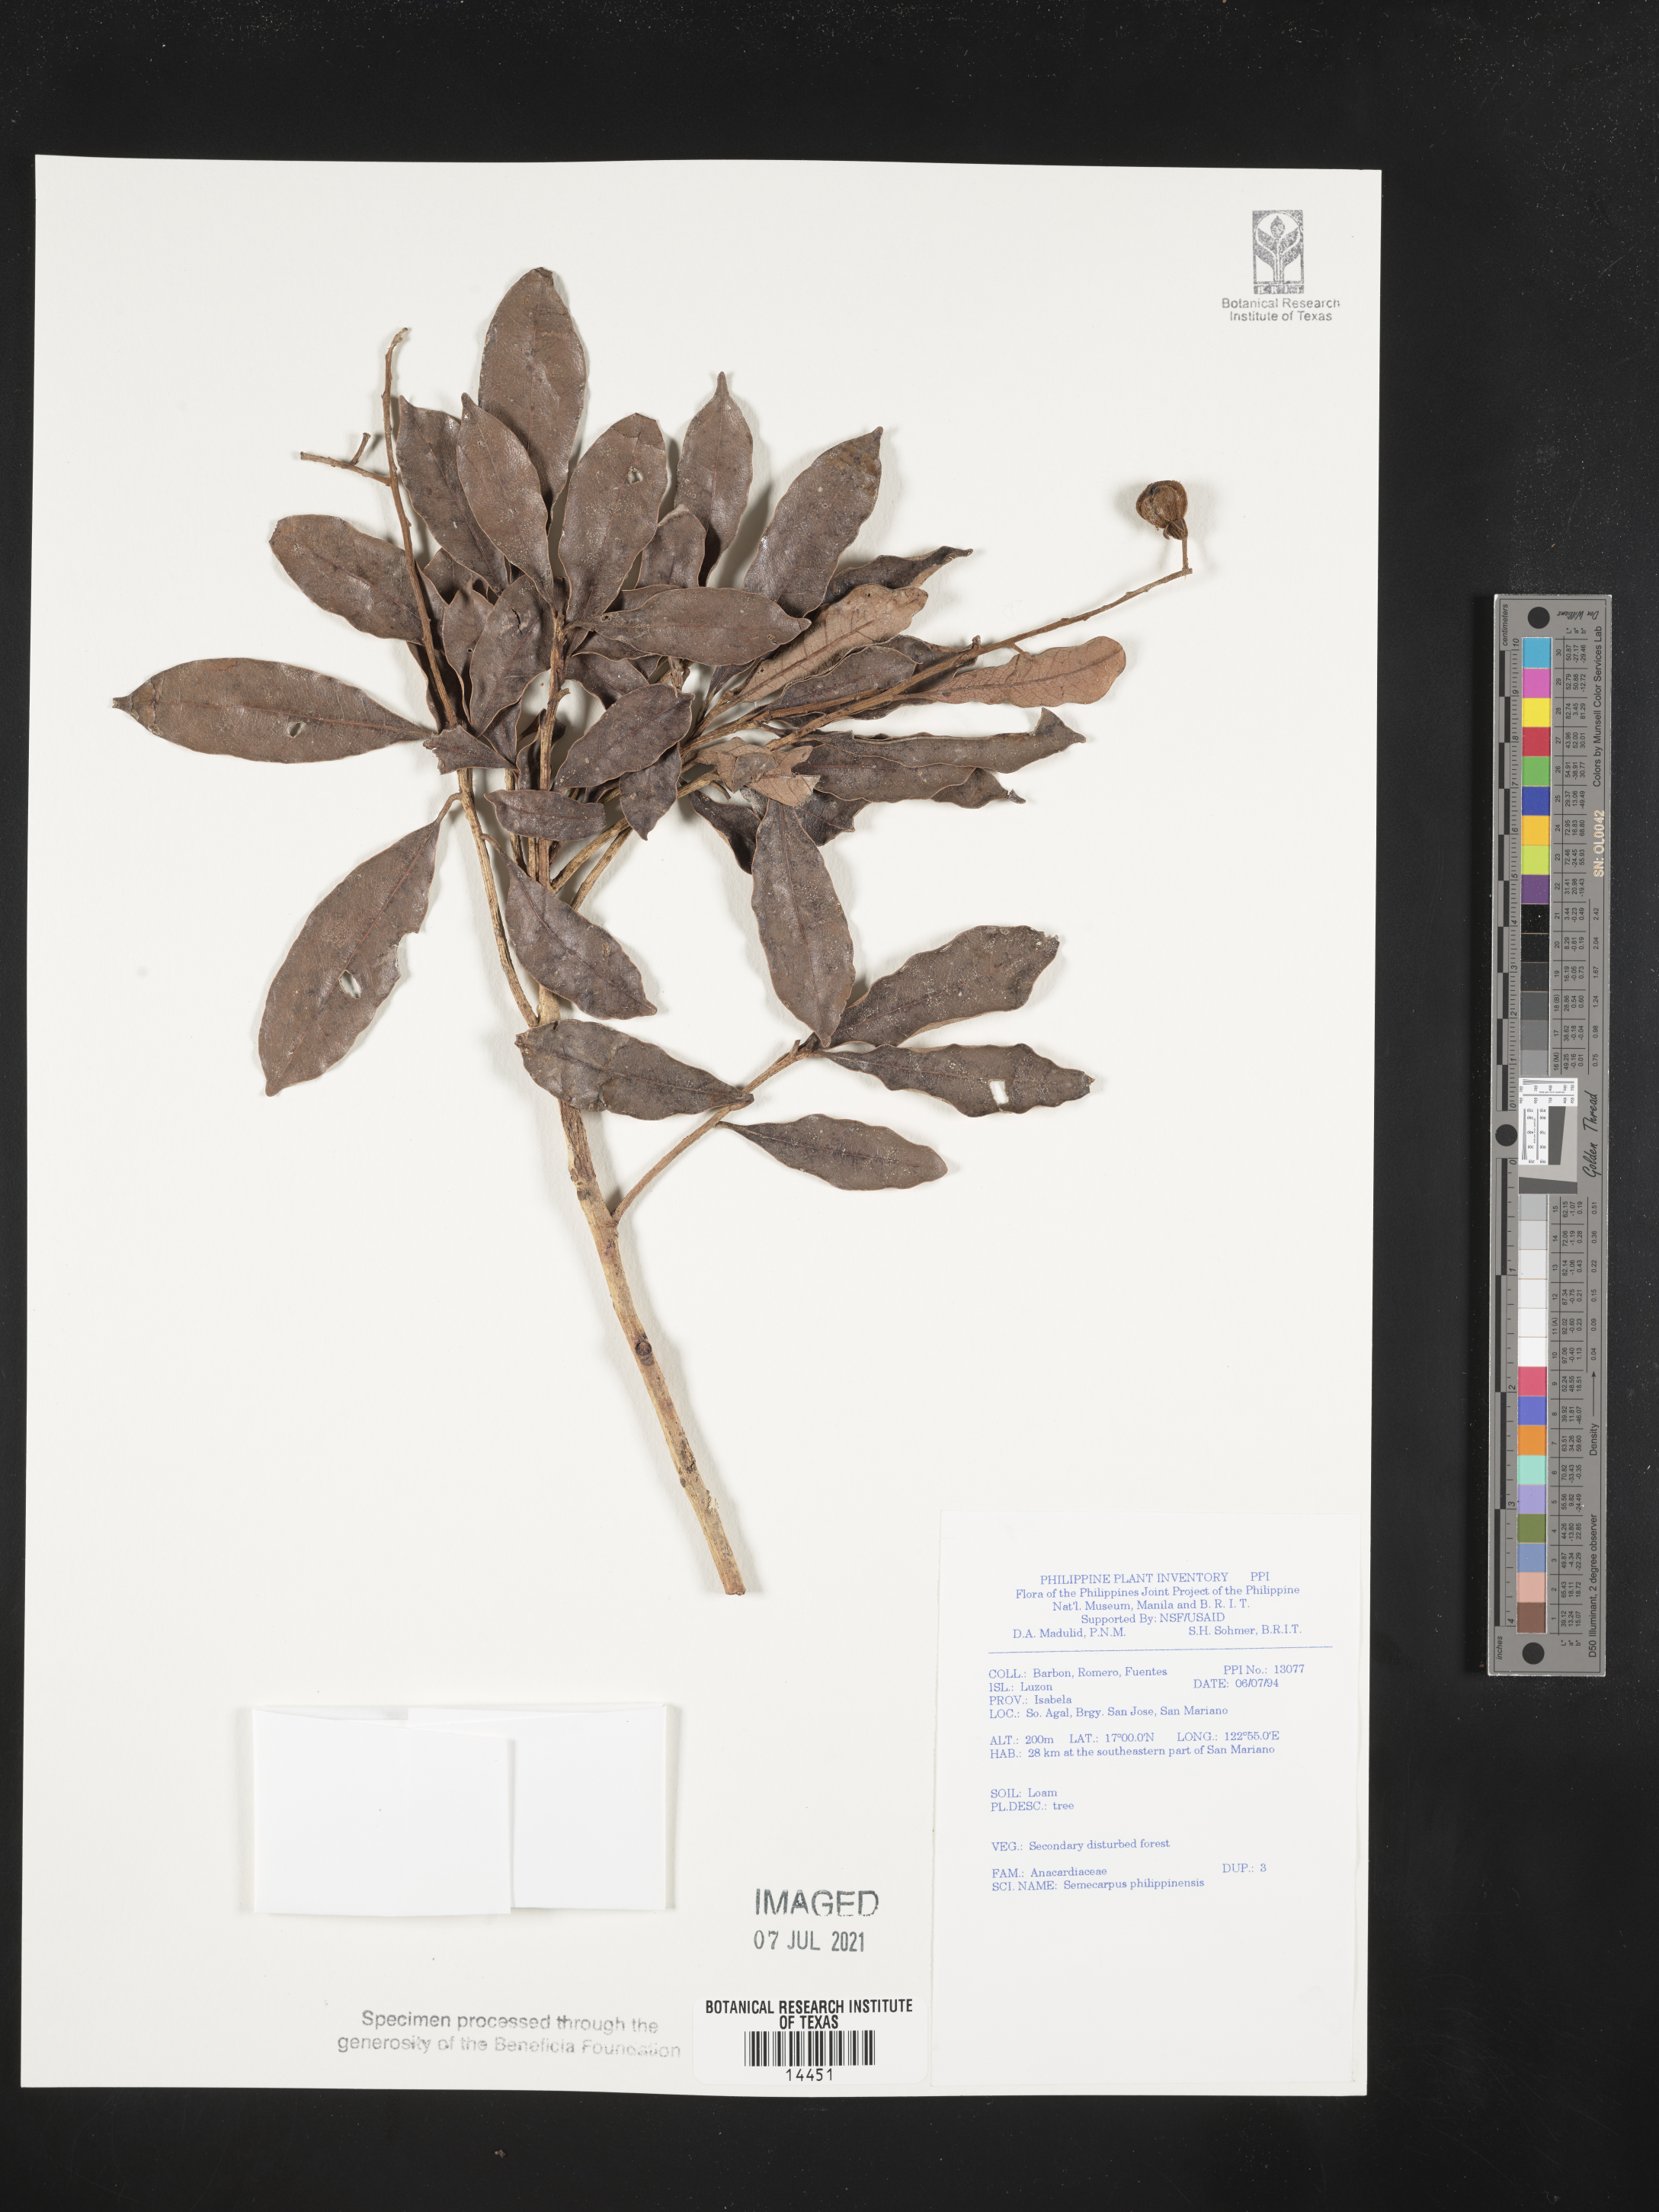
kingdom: Plantae
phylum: Tracheophyta
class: Magnoliopsida
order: Sapindales
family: Anacardiaceae
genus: Semecarpus
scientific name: Semecarpus cuneiformis
